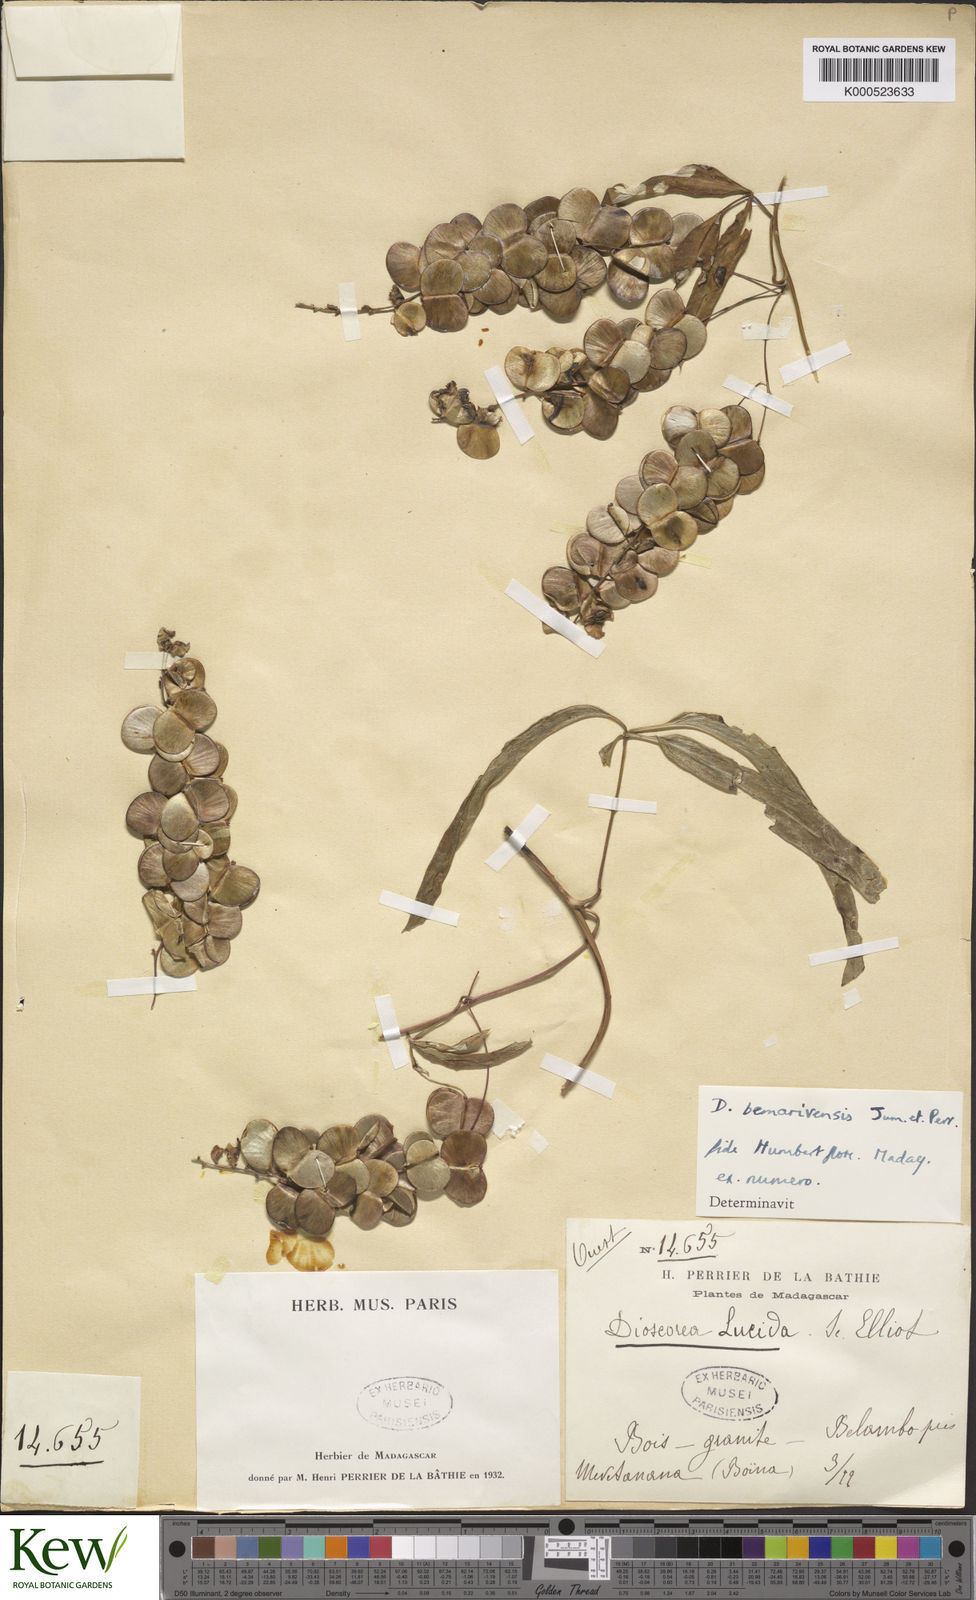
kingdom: Plantae
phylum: Tracheophyta
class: Liliopsida
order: Dioscoreales
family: Dioscoreaceae
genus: Dioscorea
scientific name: Dioscorea bemarivensis
